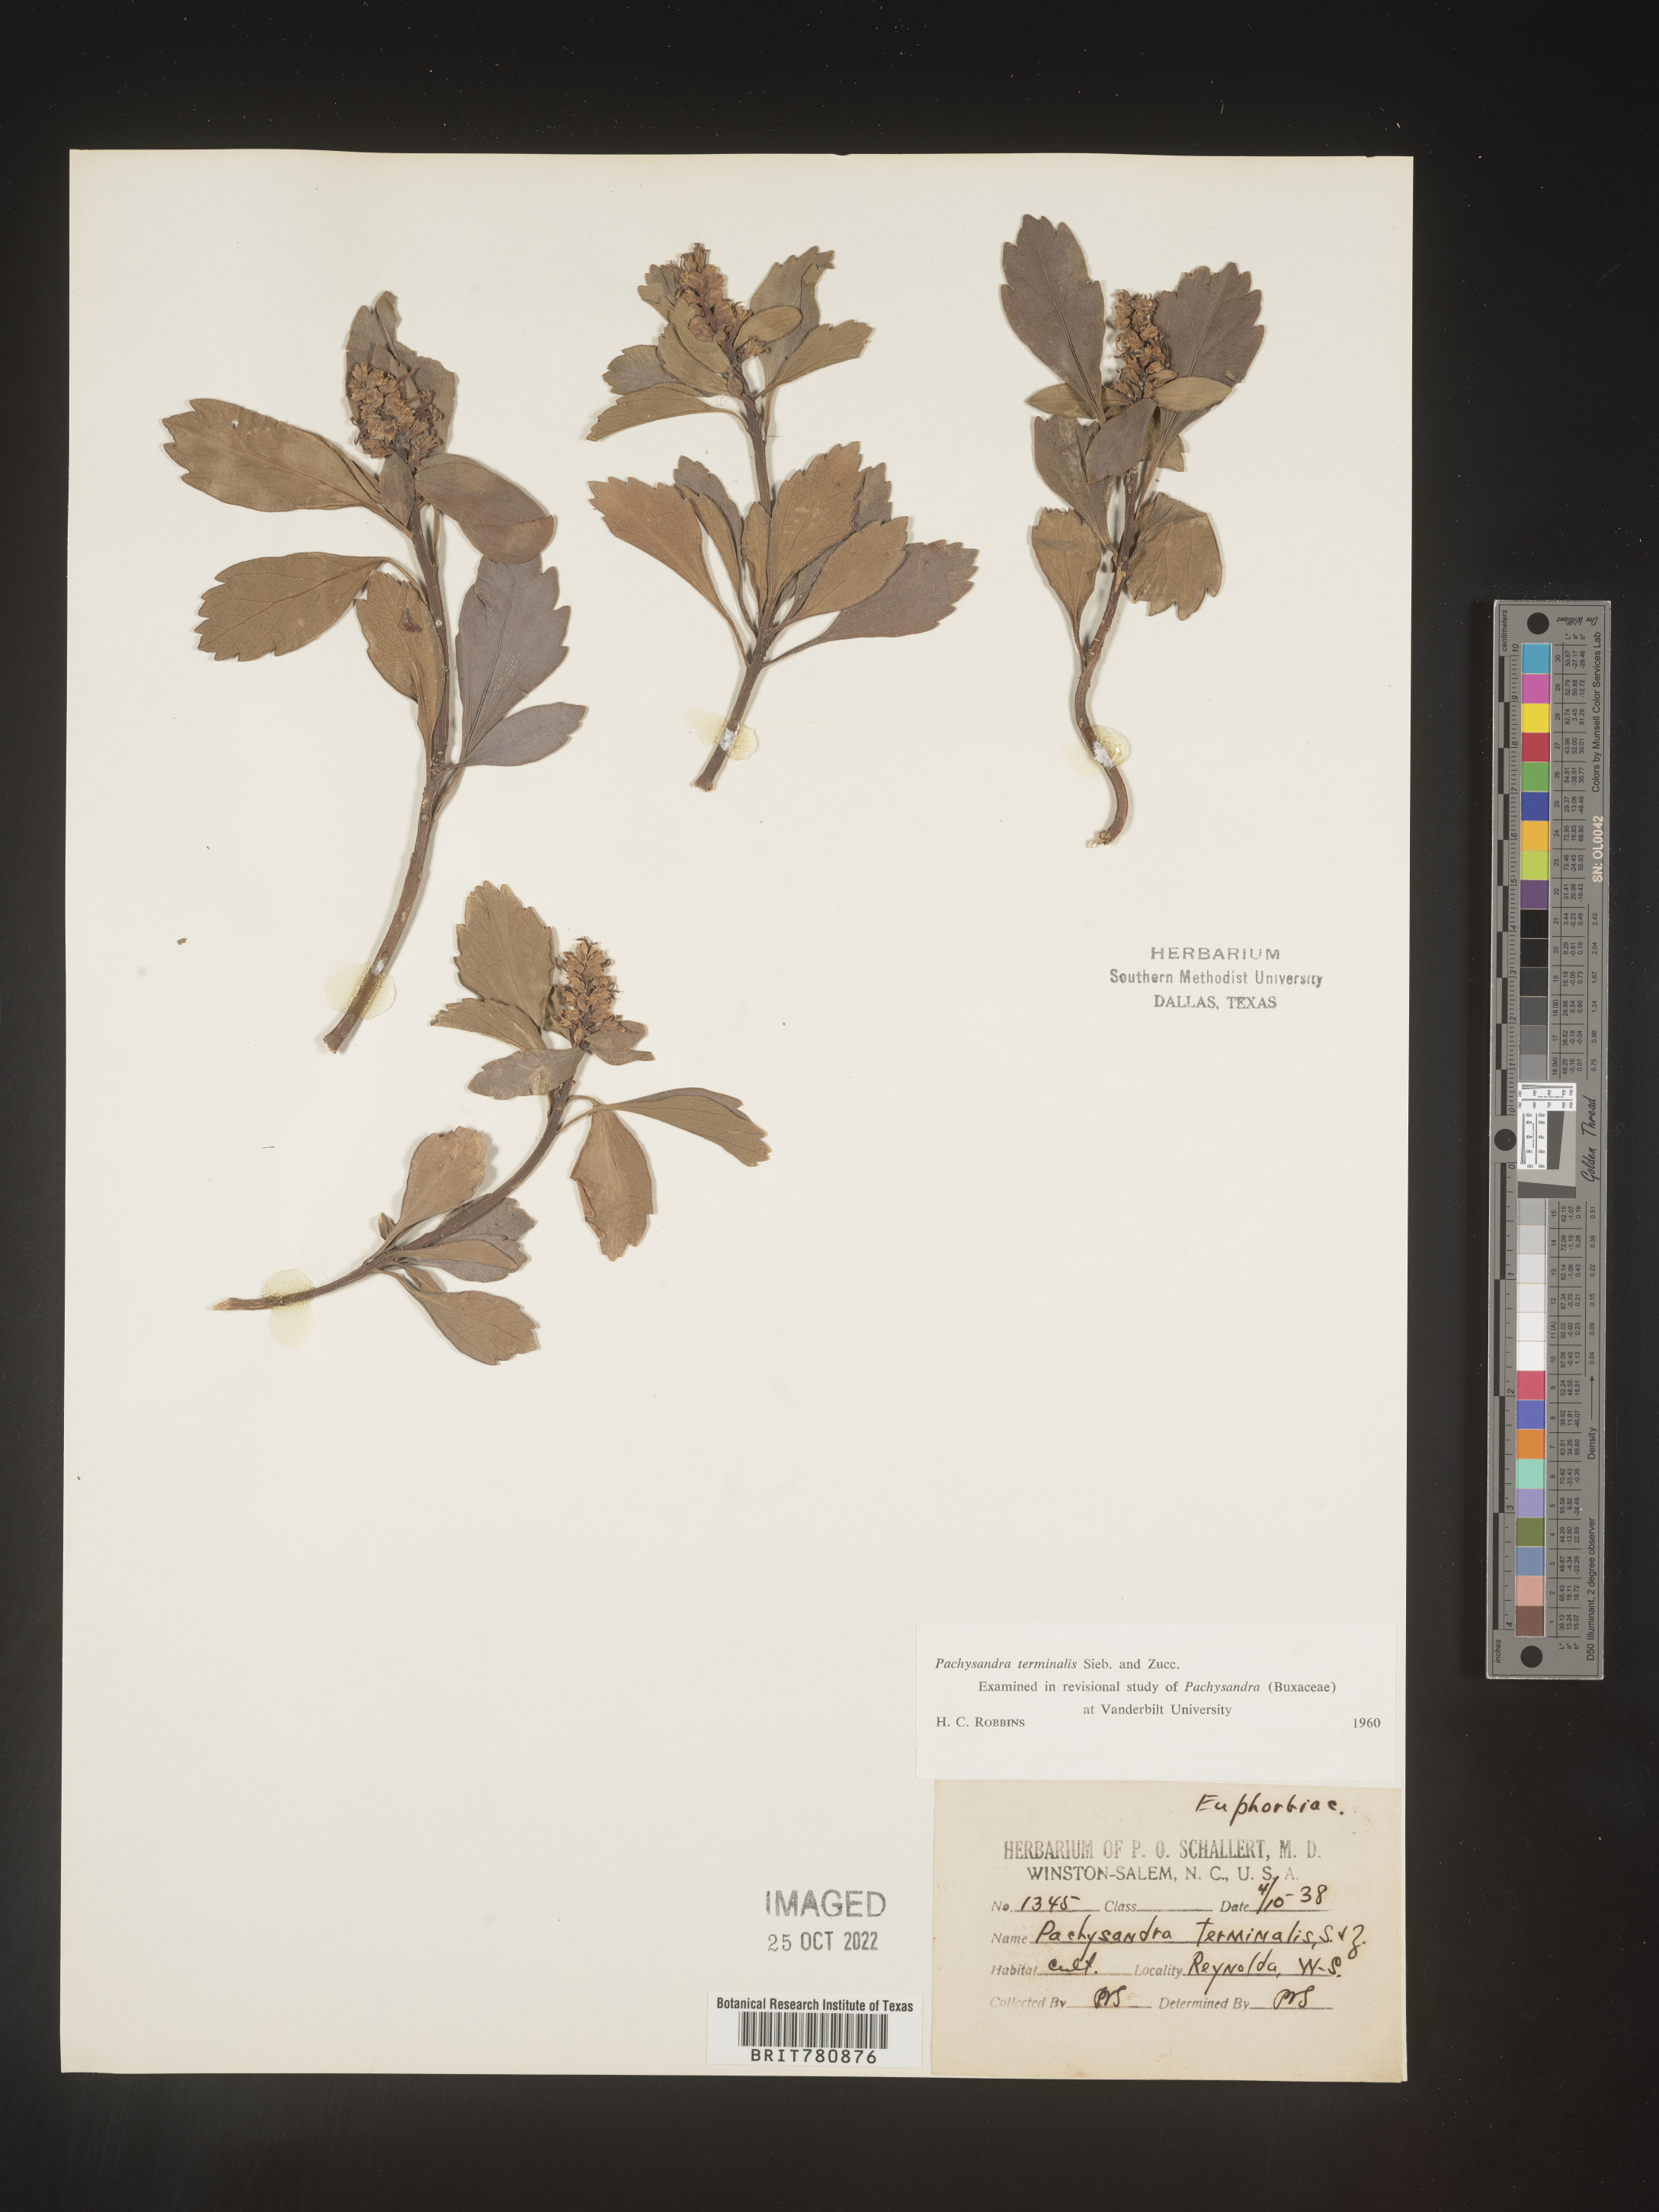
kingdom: Plantae
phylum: Tracheophyta
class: Magnoliopsida
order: Buxales
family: Buxaceae
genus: Pachysandra
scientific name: Pachysandra
